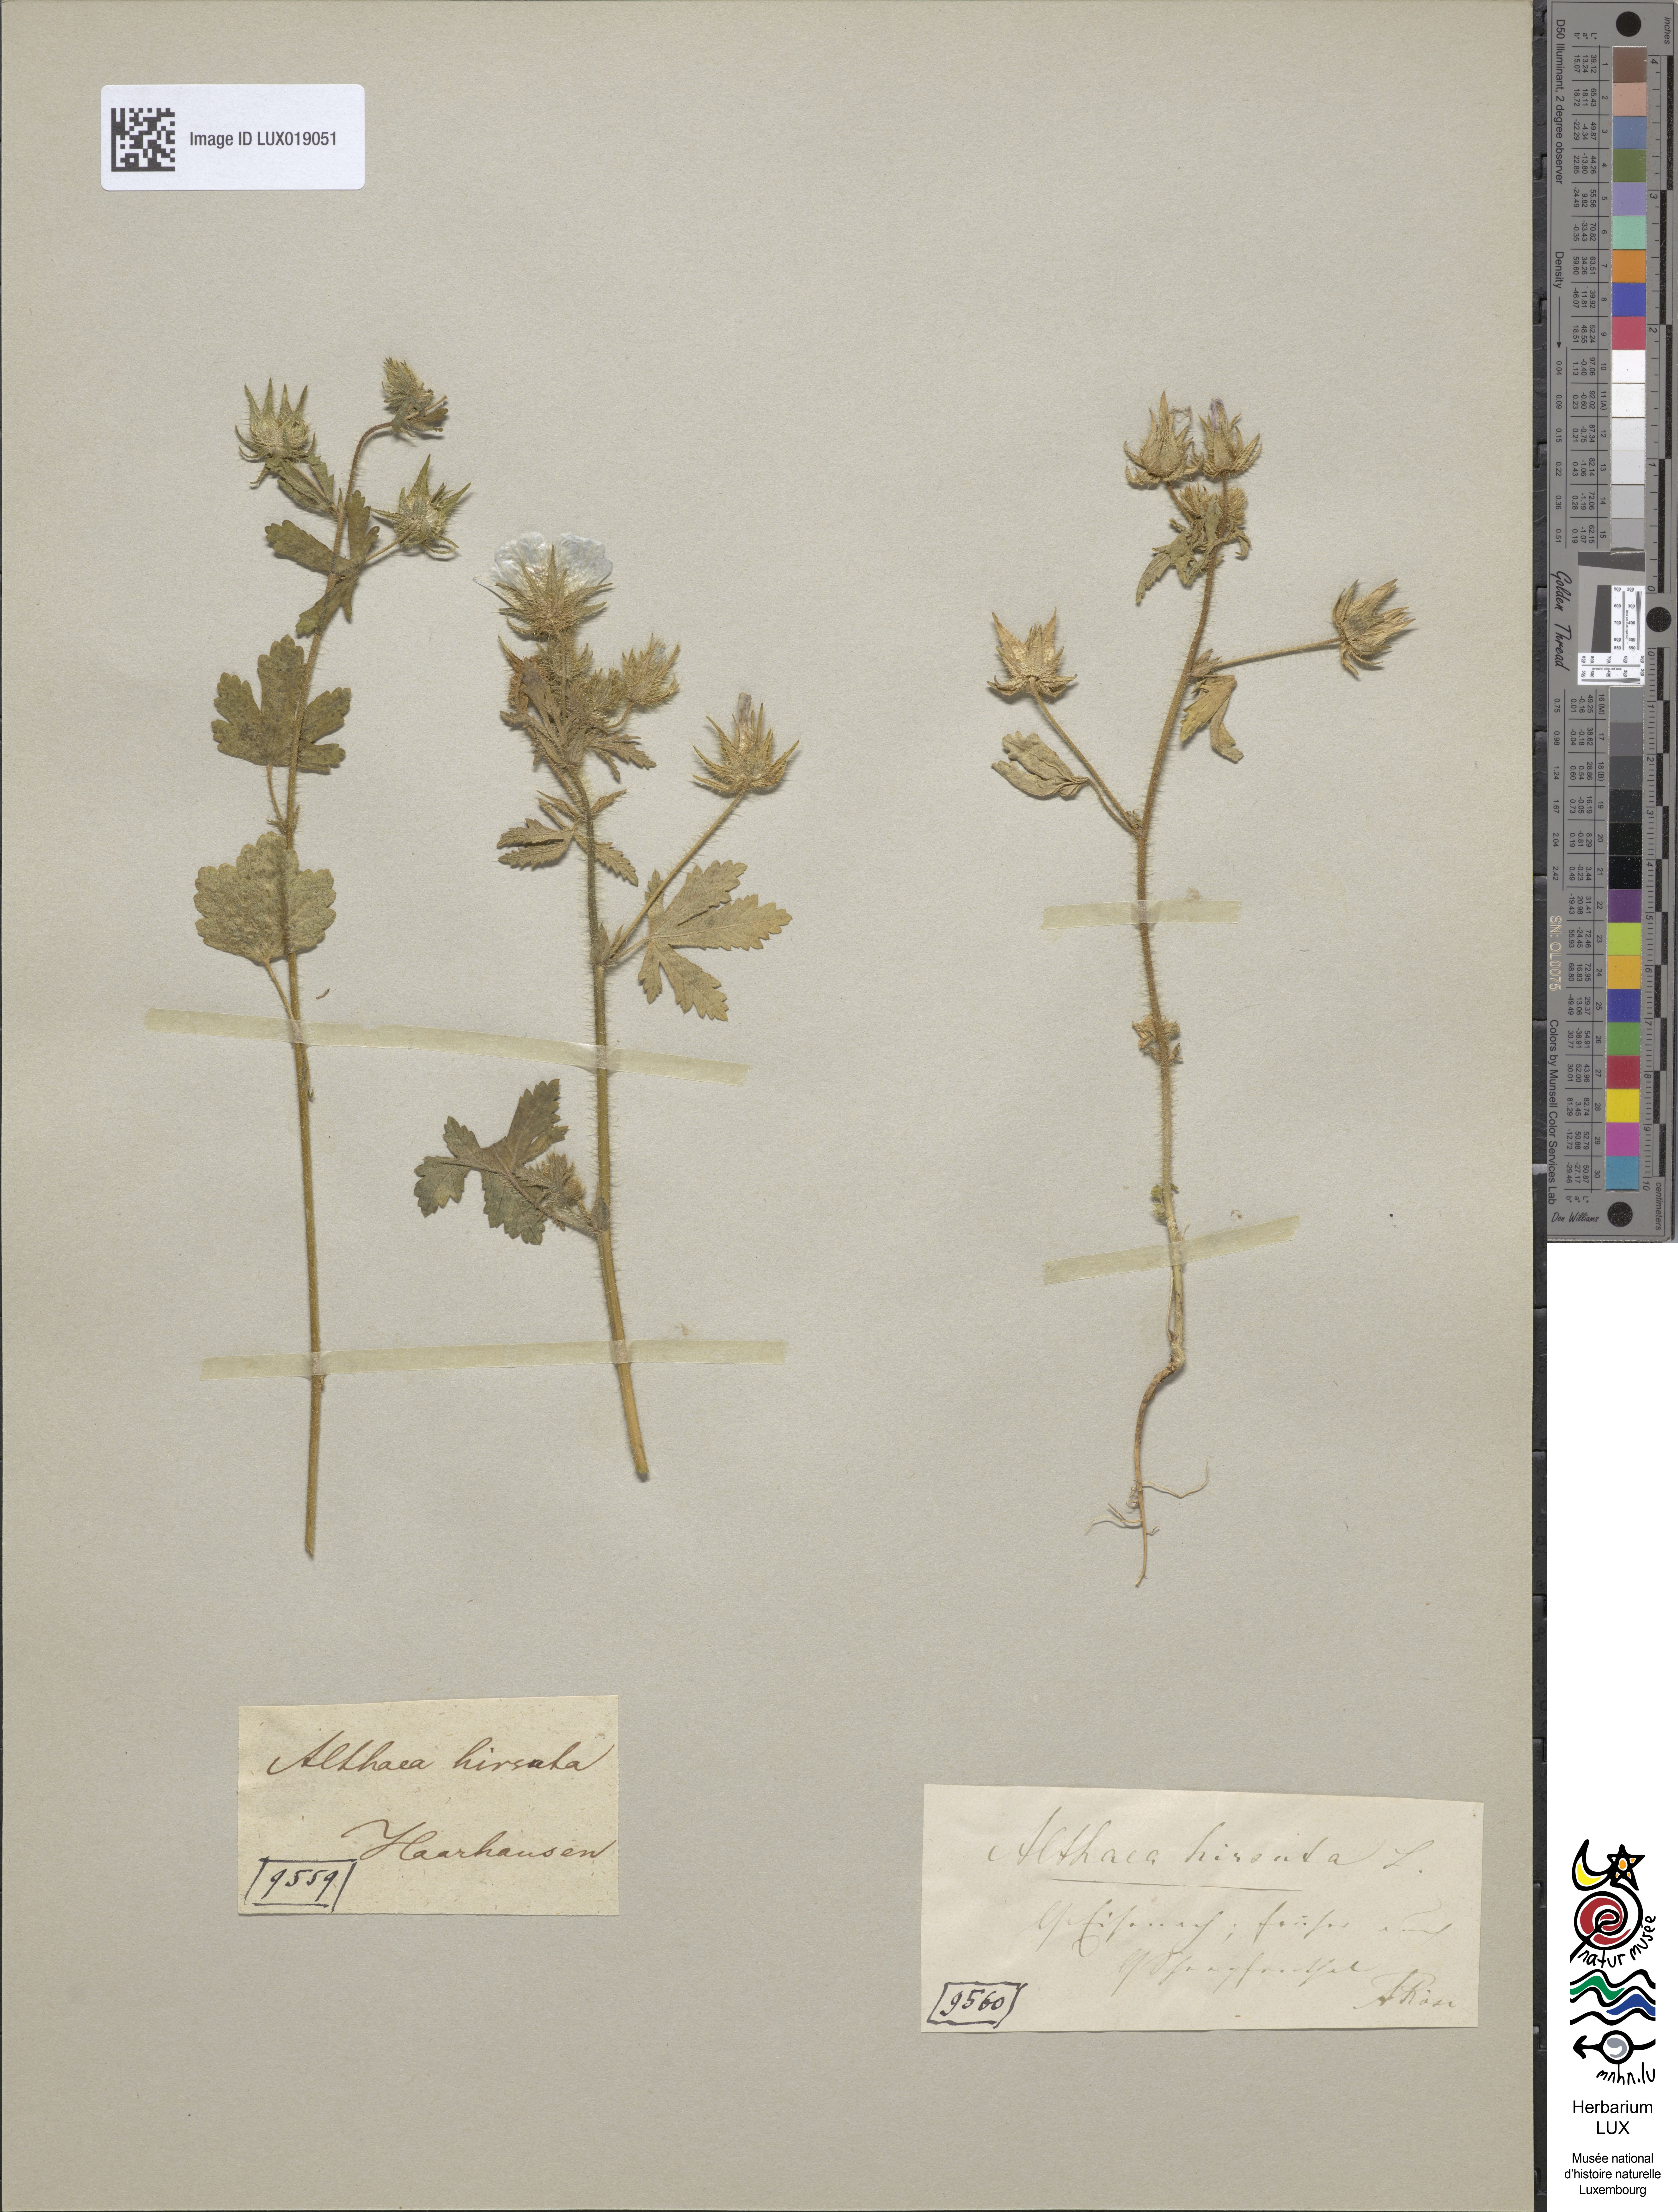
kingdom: Plantae
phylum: Tracheophyta
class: Magnoliopsida
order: Malvales
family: Malvaceae
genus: Althaea
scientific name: Althaea hirsuta
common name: Rough marsh-mallow
